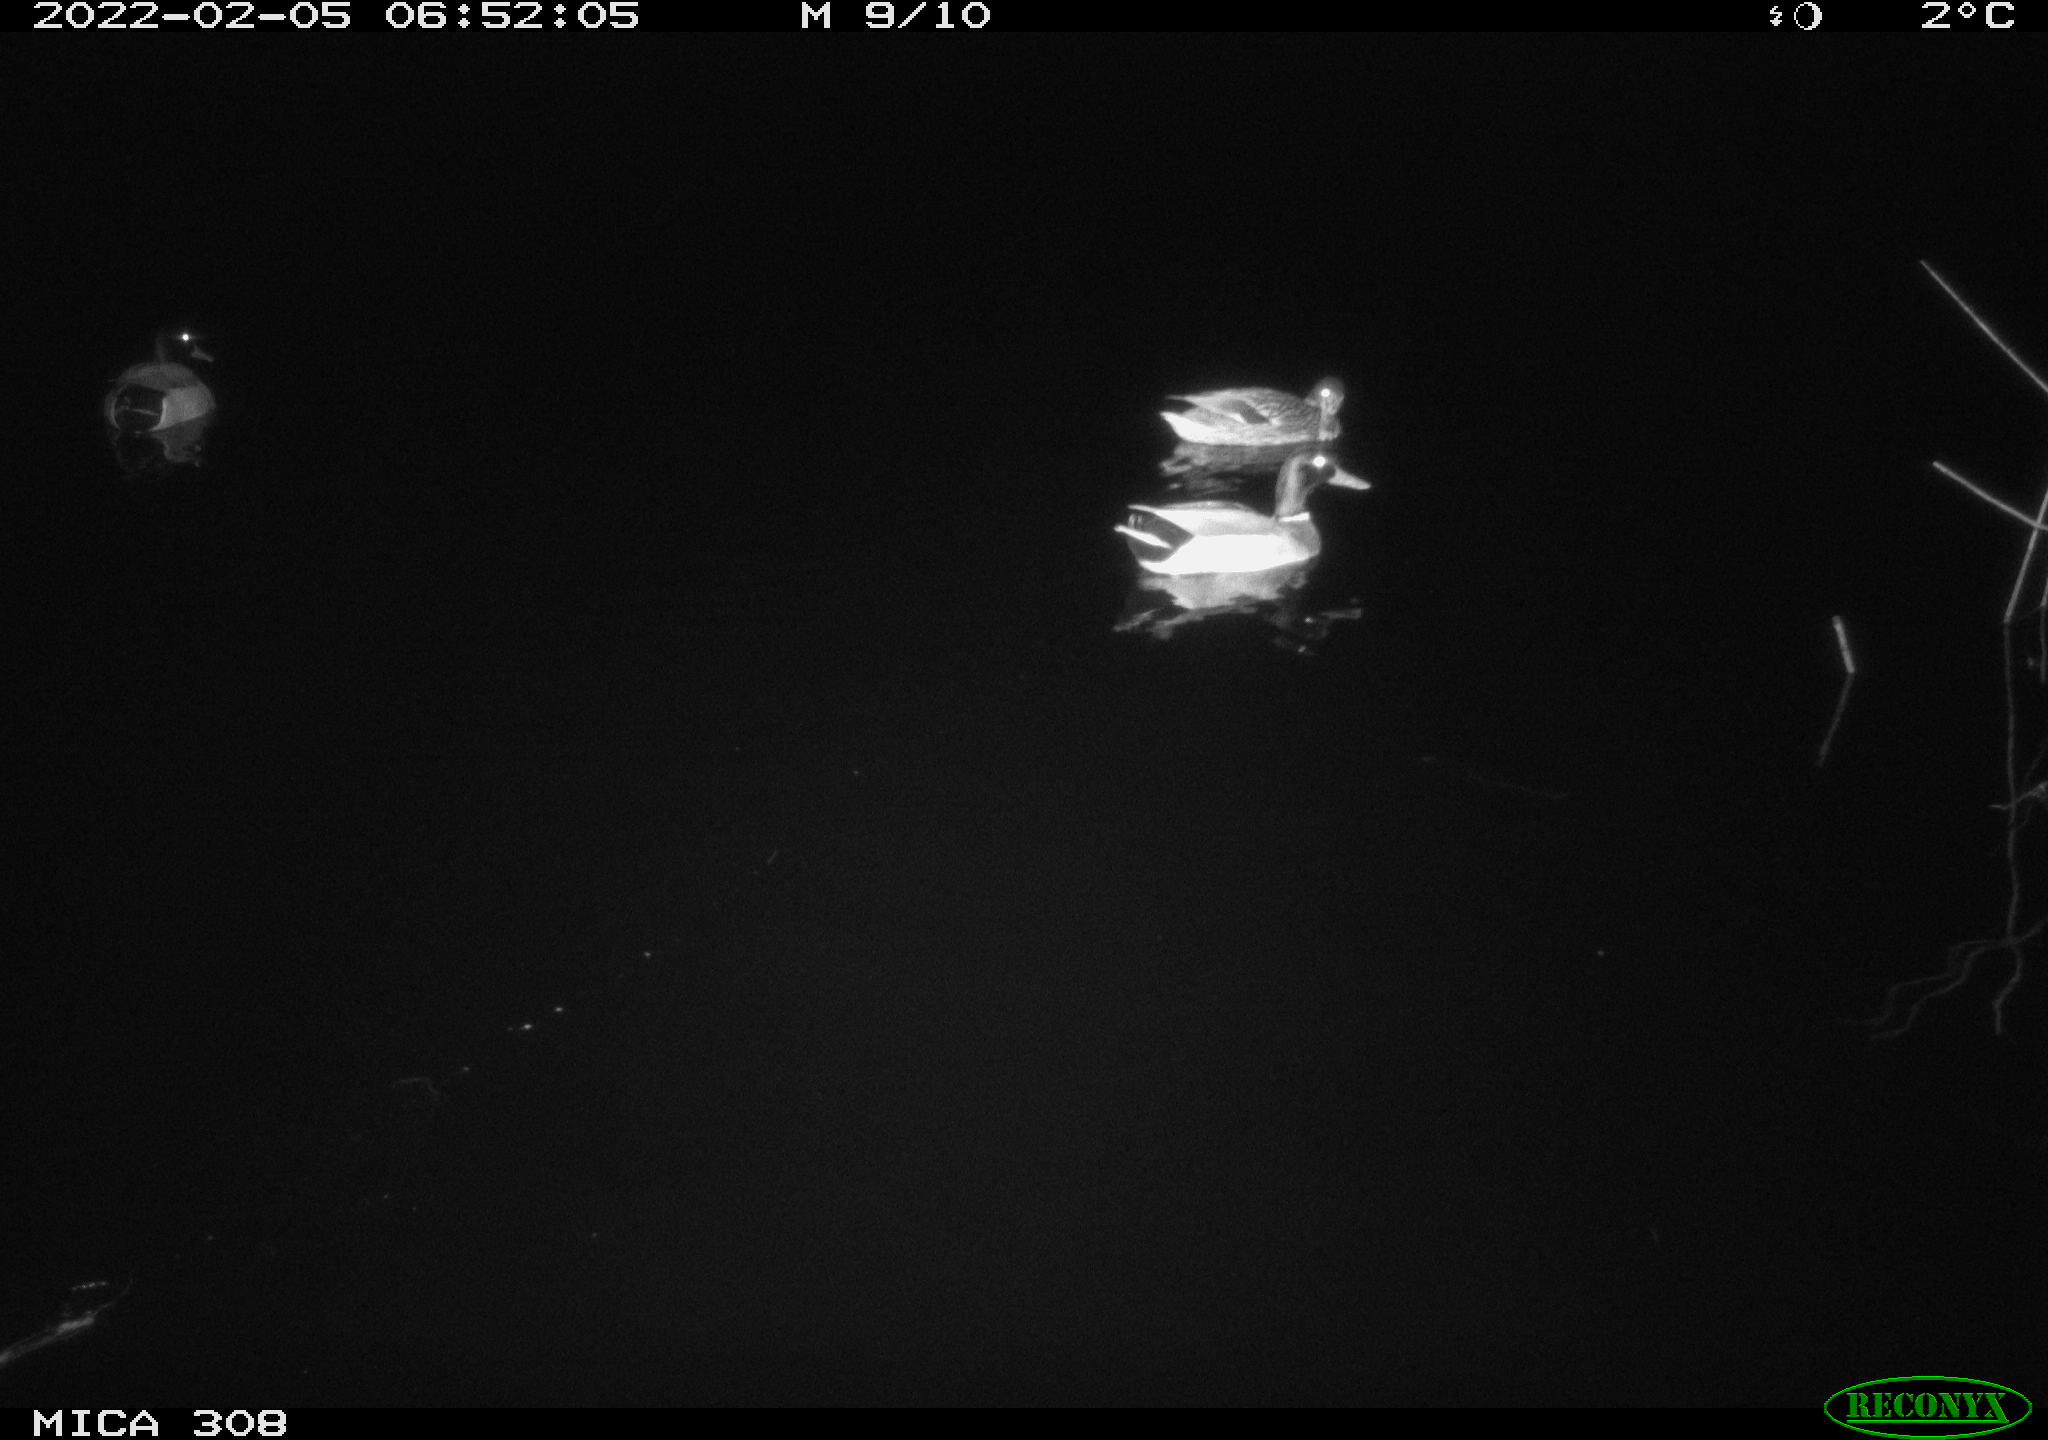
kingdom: Animalia
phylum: Chordata
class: Aves
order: Anseriformes
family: Anatidae
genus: Anas
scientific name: Anas platyrhynchos
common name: Mallard
